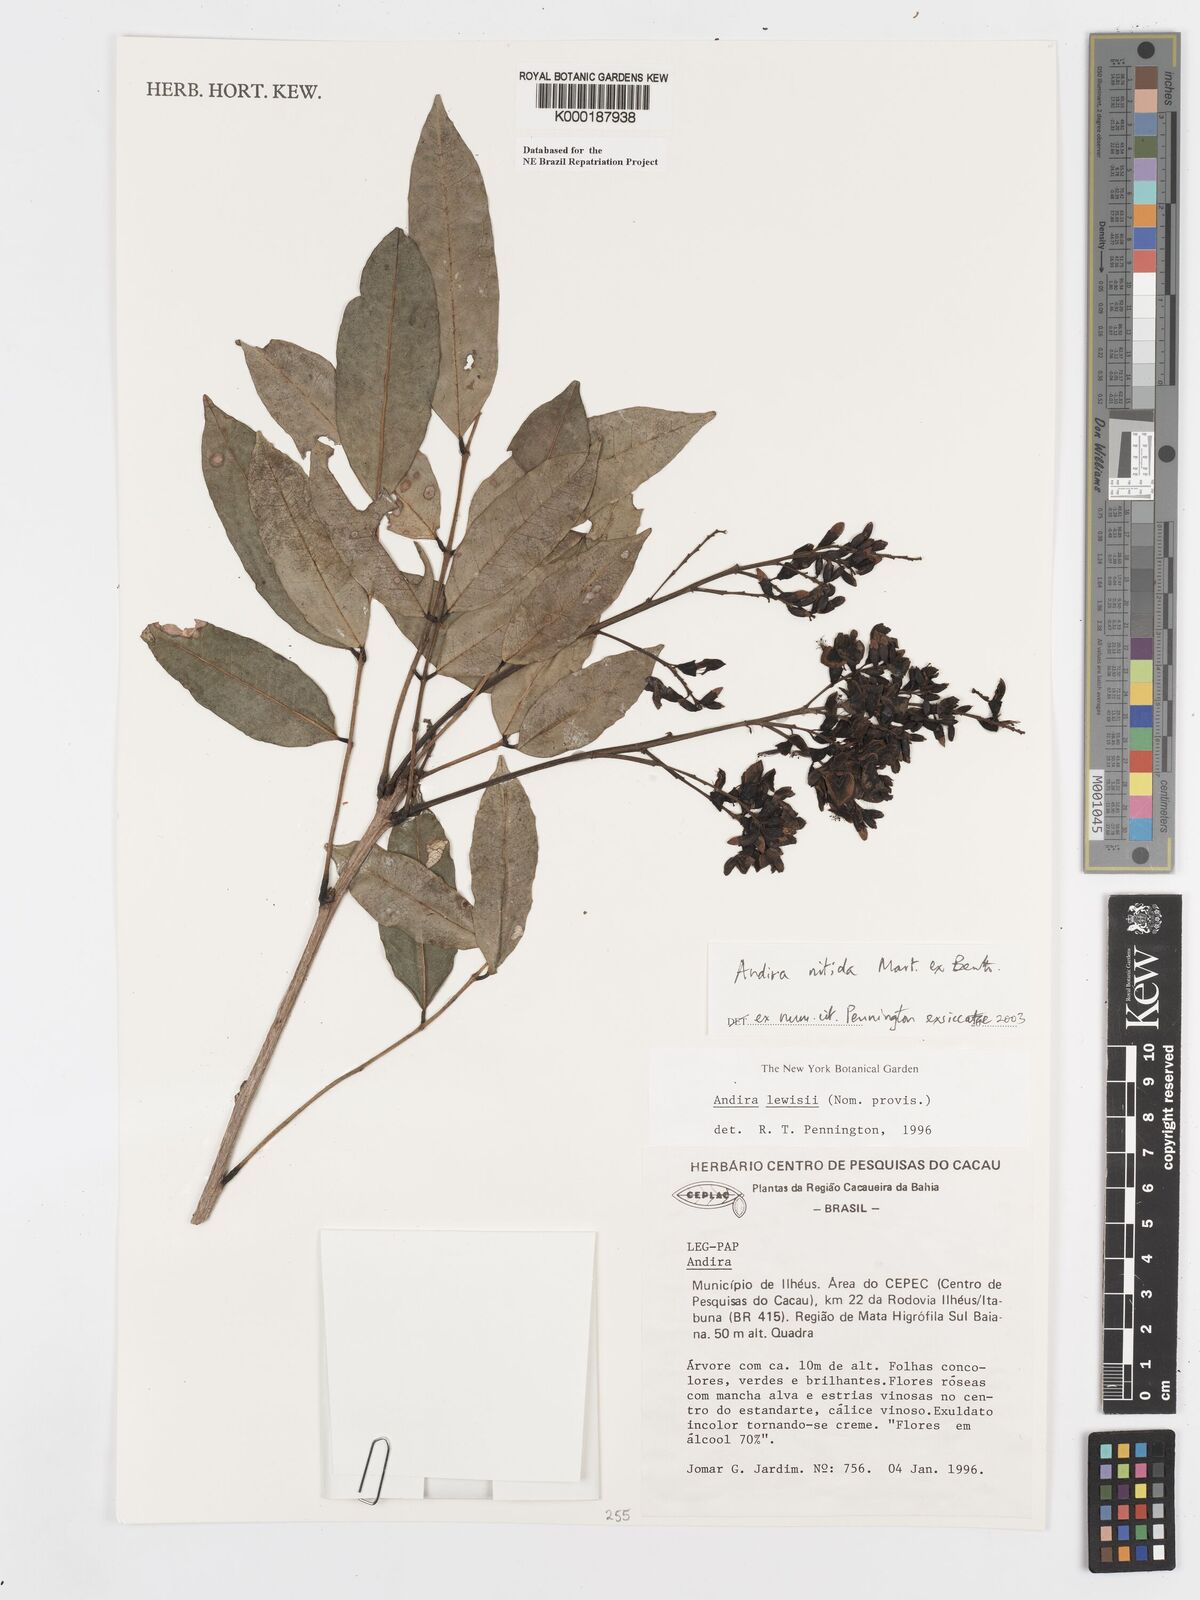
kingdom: Plantae
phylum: Tracheophyta
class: Magnoliopsida
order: Fabales
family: Fabaceae
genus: Andira
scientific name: Andira nitida
